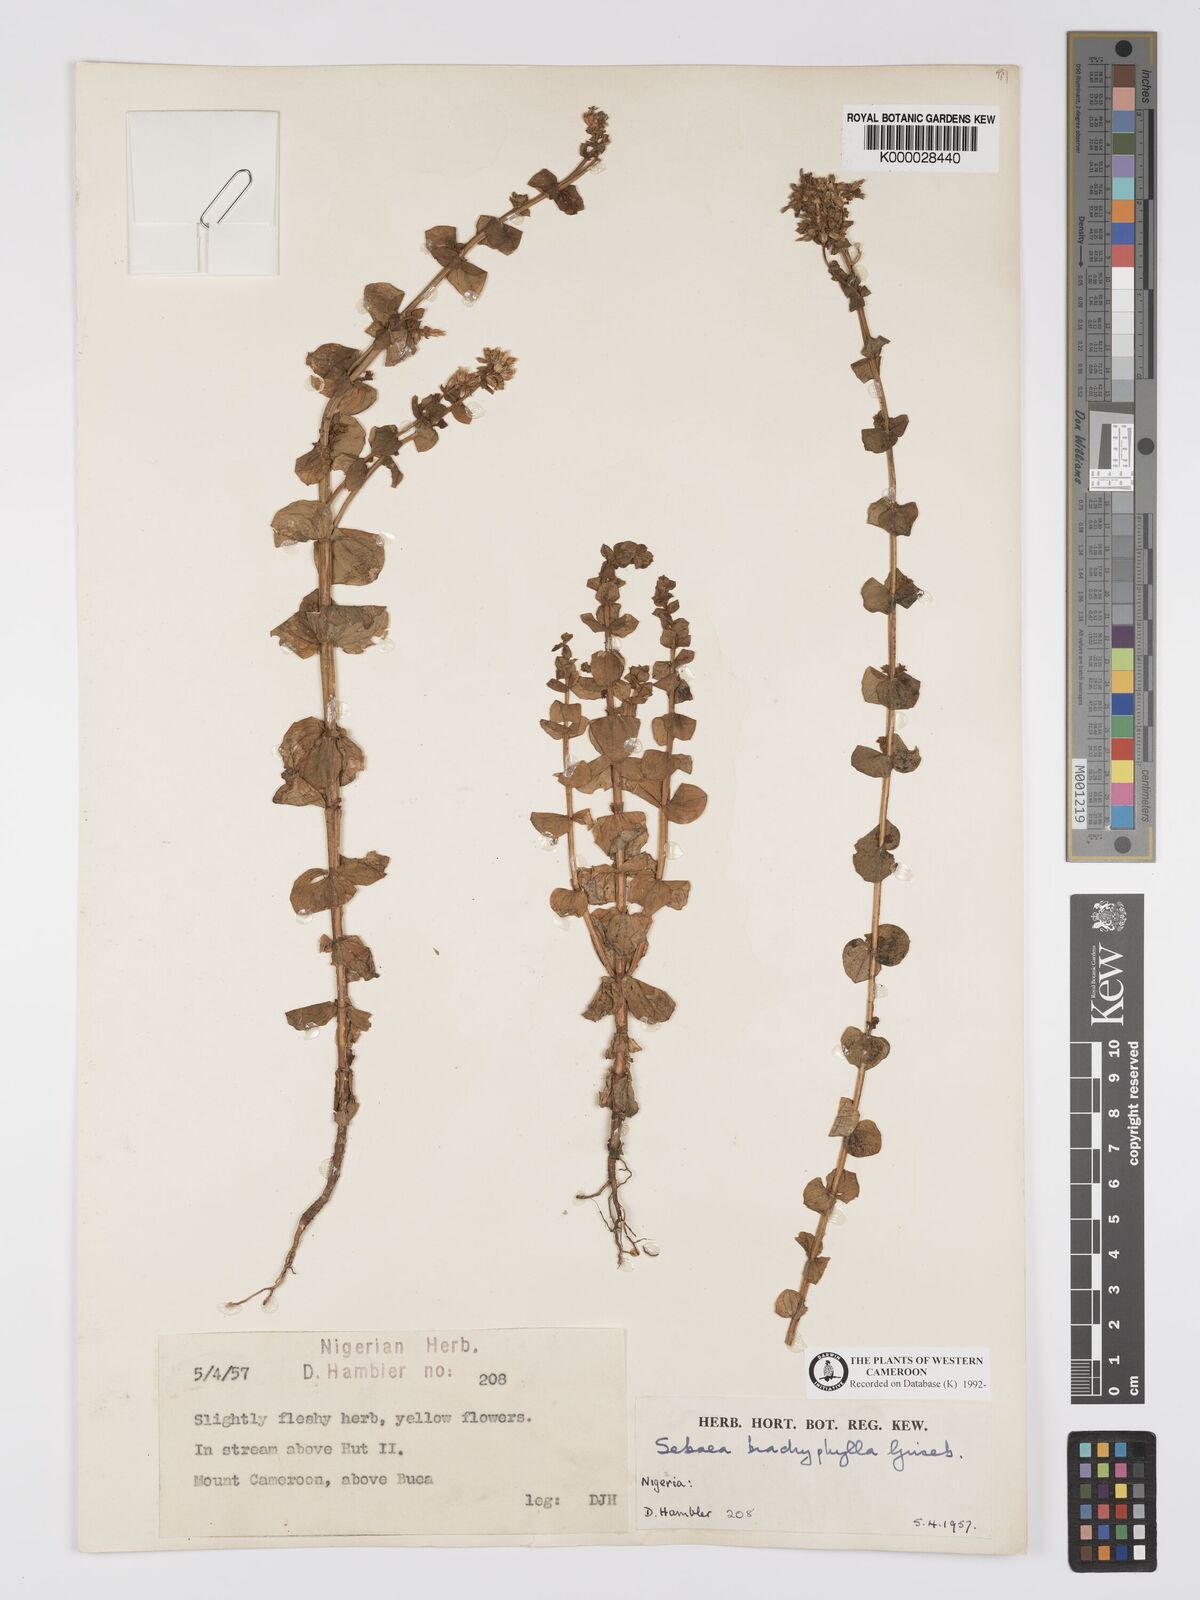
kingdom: Plantae
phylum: Tracheophyta
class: Magnoliopsida
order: Gentianales
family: Gentianaceae
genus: Sebaea
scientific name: Sebaea brachyphylla
